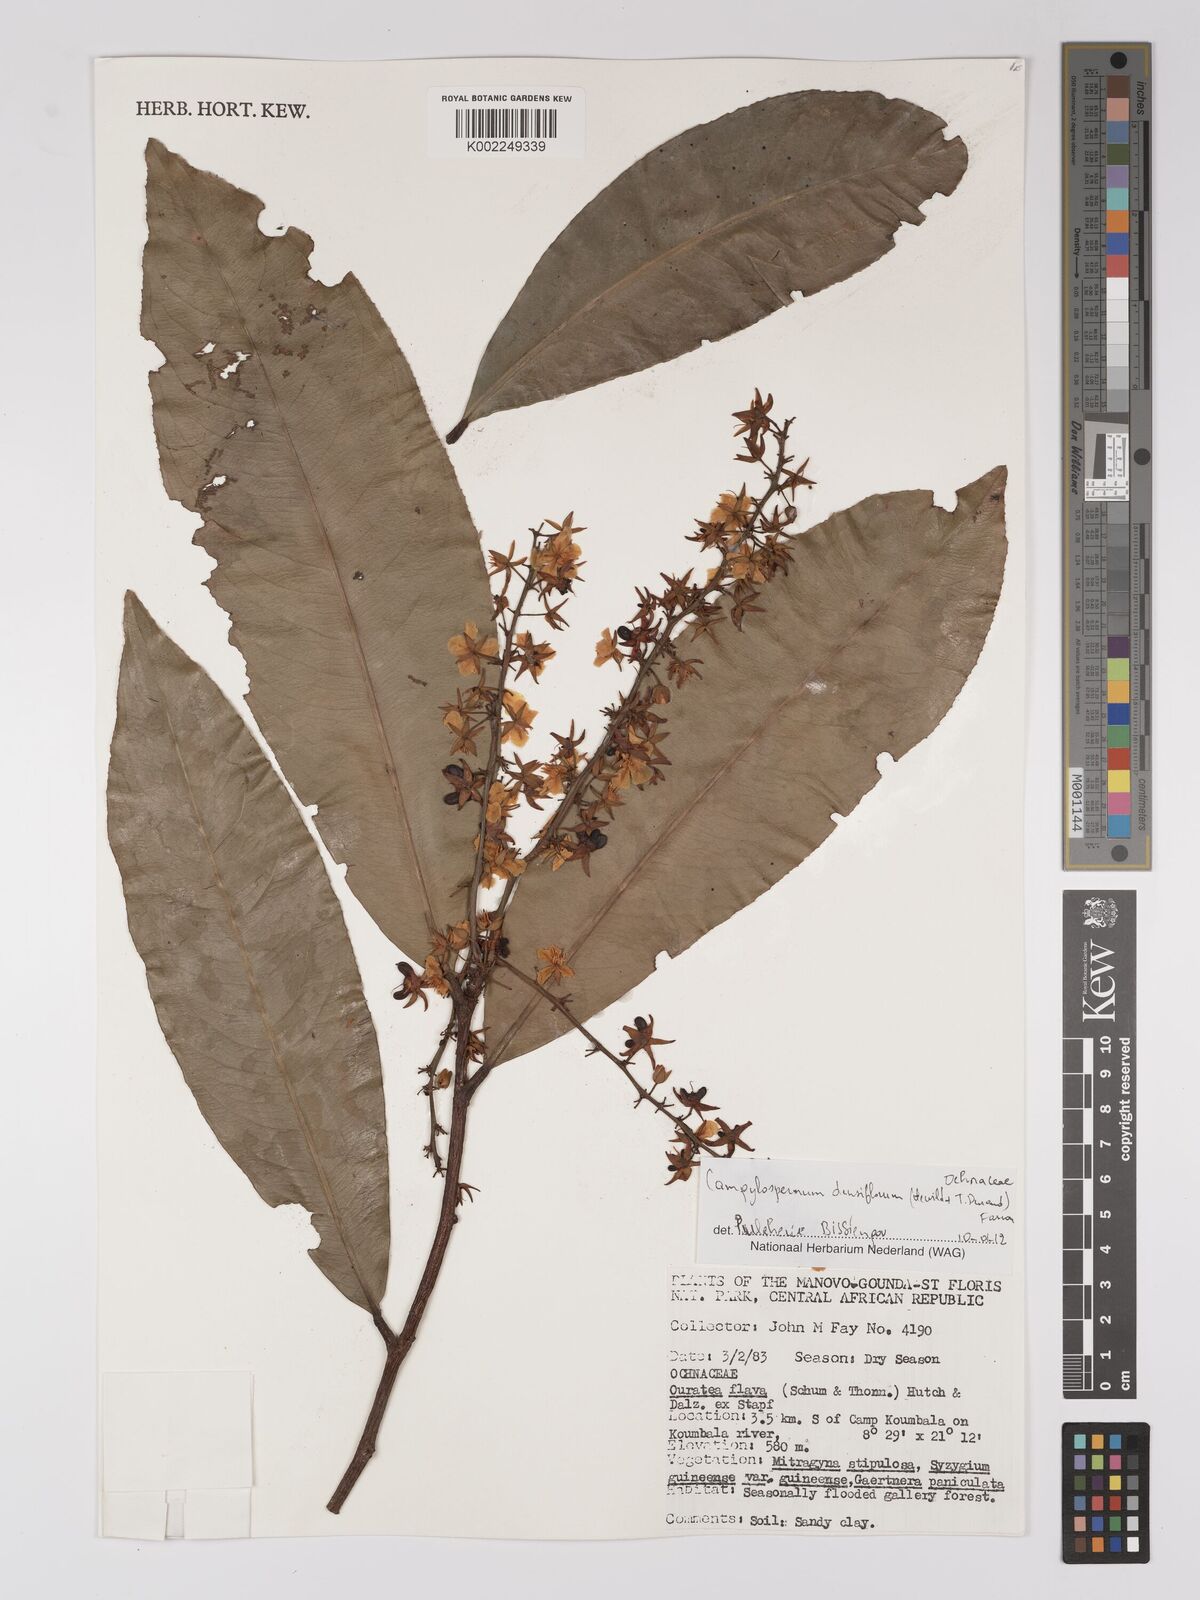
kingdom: Plantae
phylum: Tracheophyta
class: Magnoliopsida
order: Malpighiales
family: Ochnaceae
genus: Gomphia
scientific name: Gomphia densiflora
